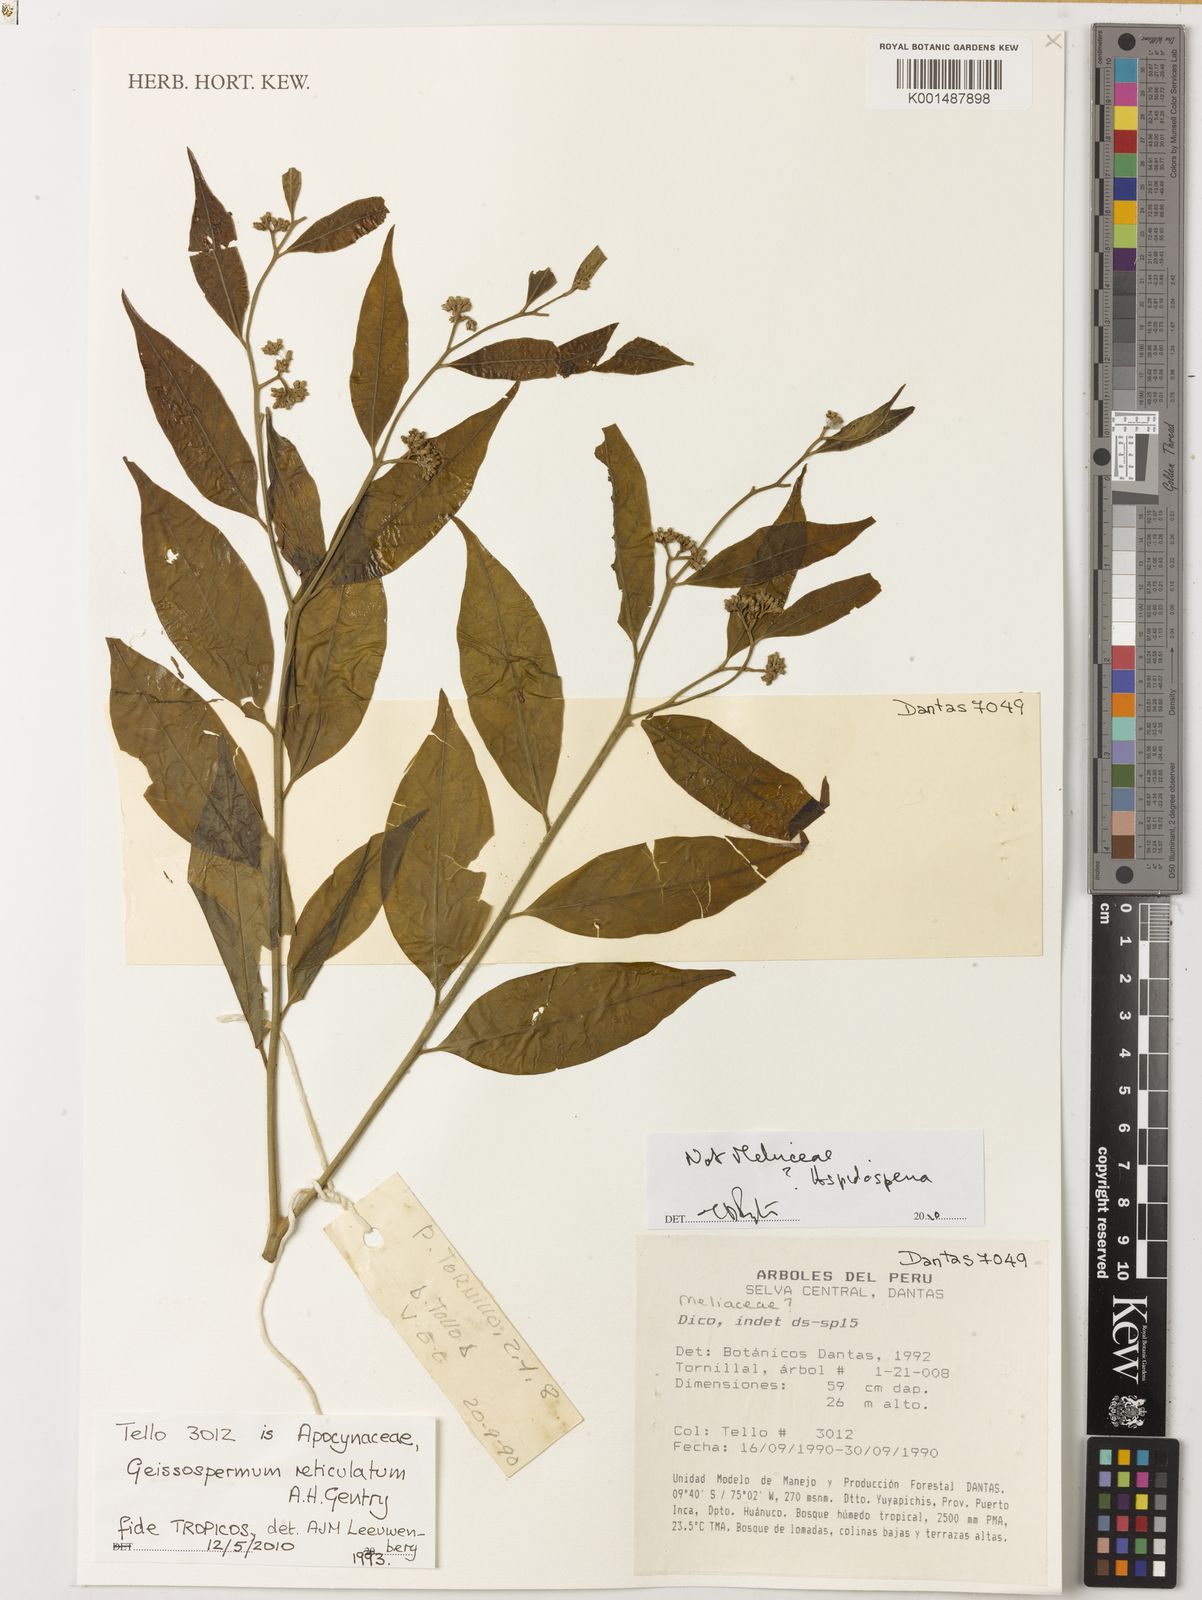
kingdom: Plantae
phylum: Tracheophyta
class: Magnoliopsida
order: Gentianales
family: Apocynaceae
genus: Geissospermum
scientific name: Geissospermum reticulatum
